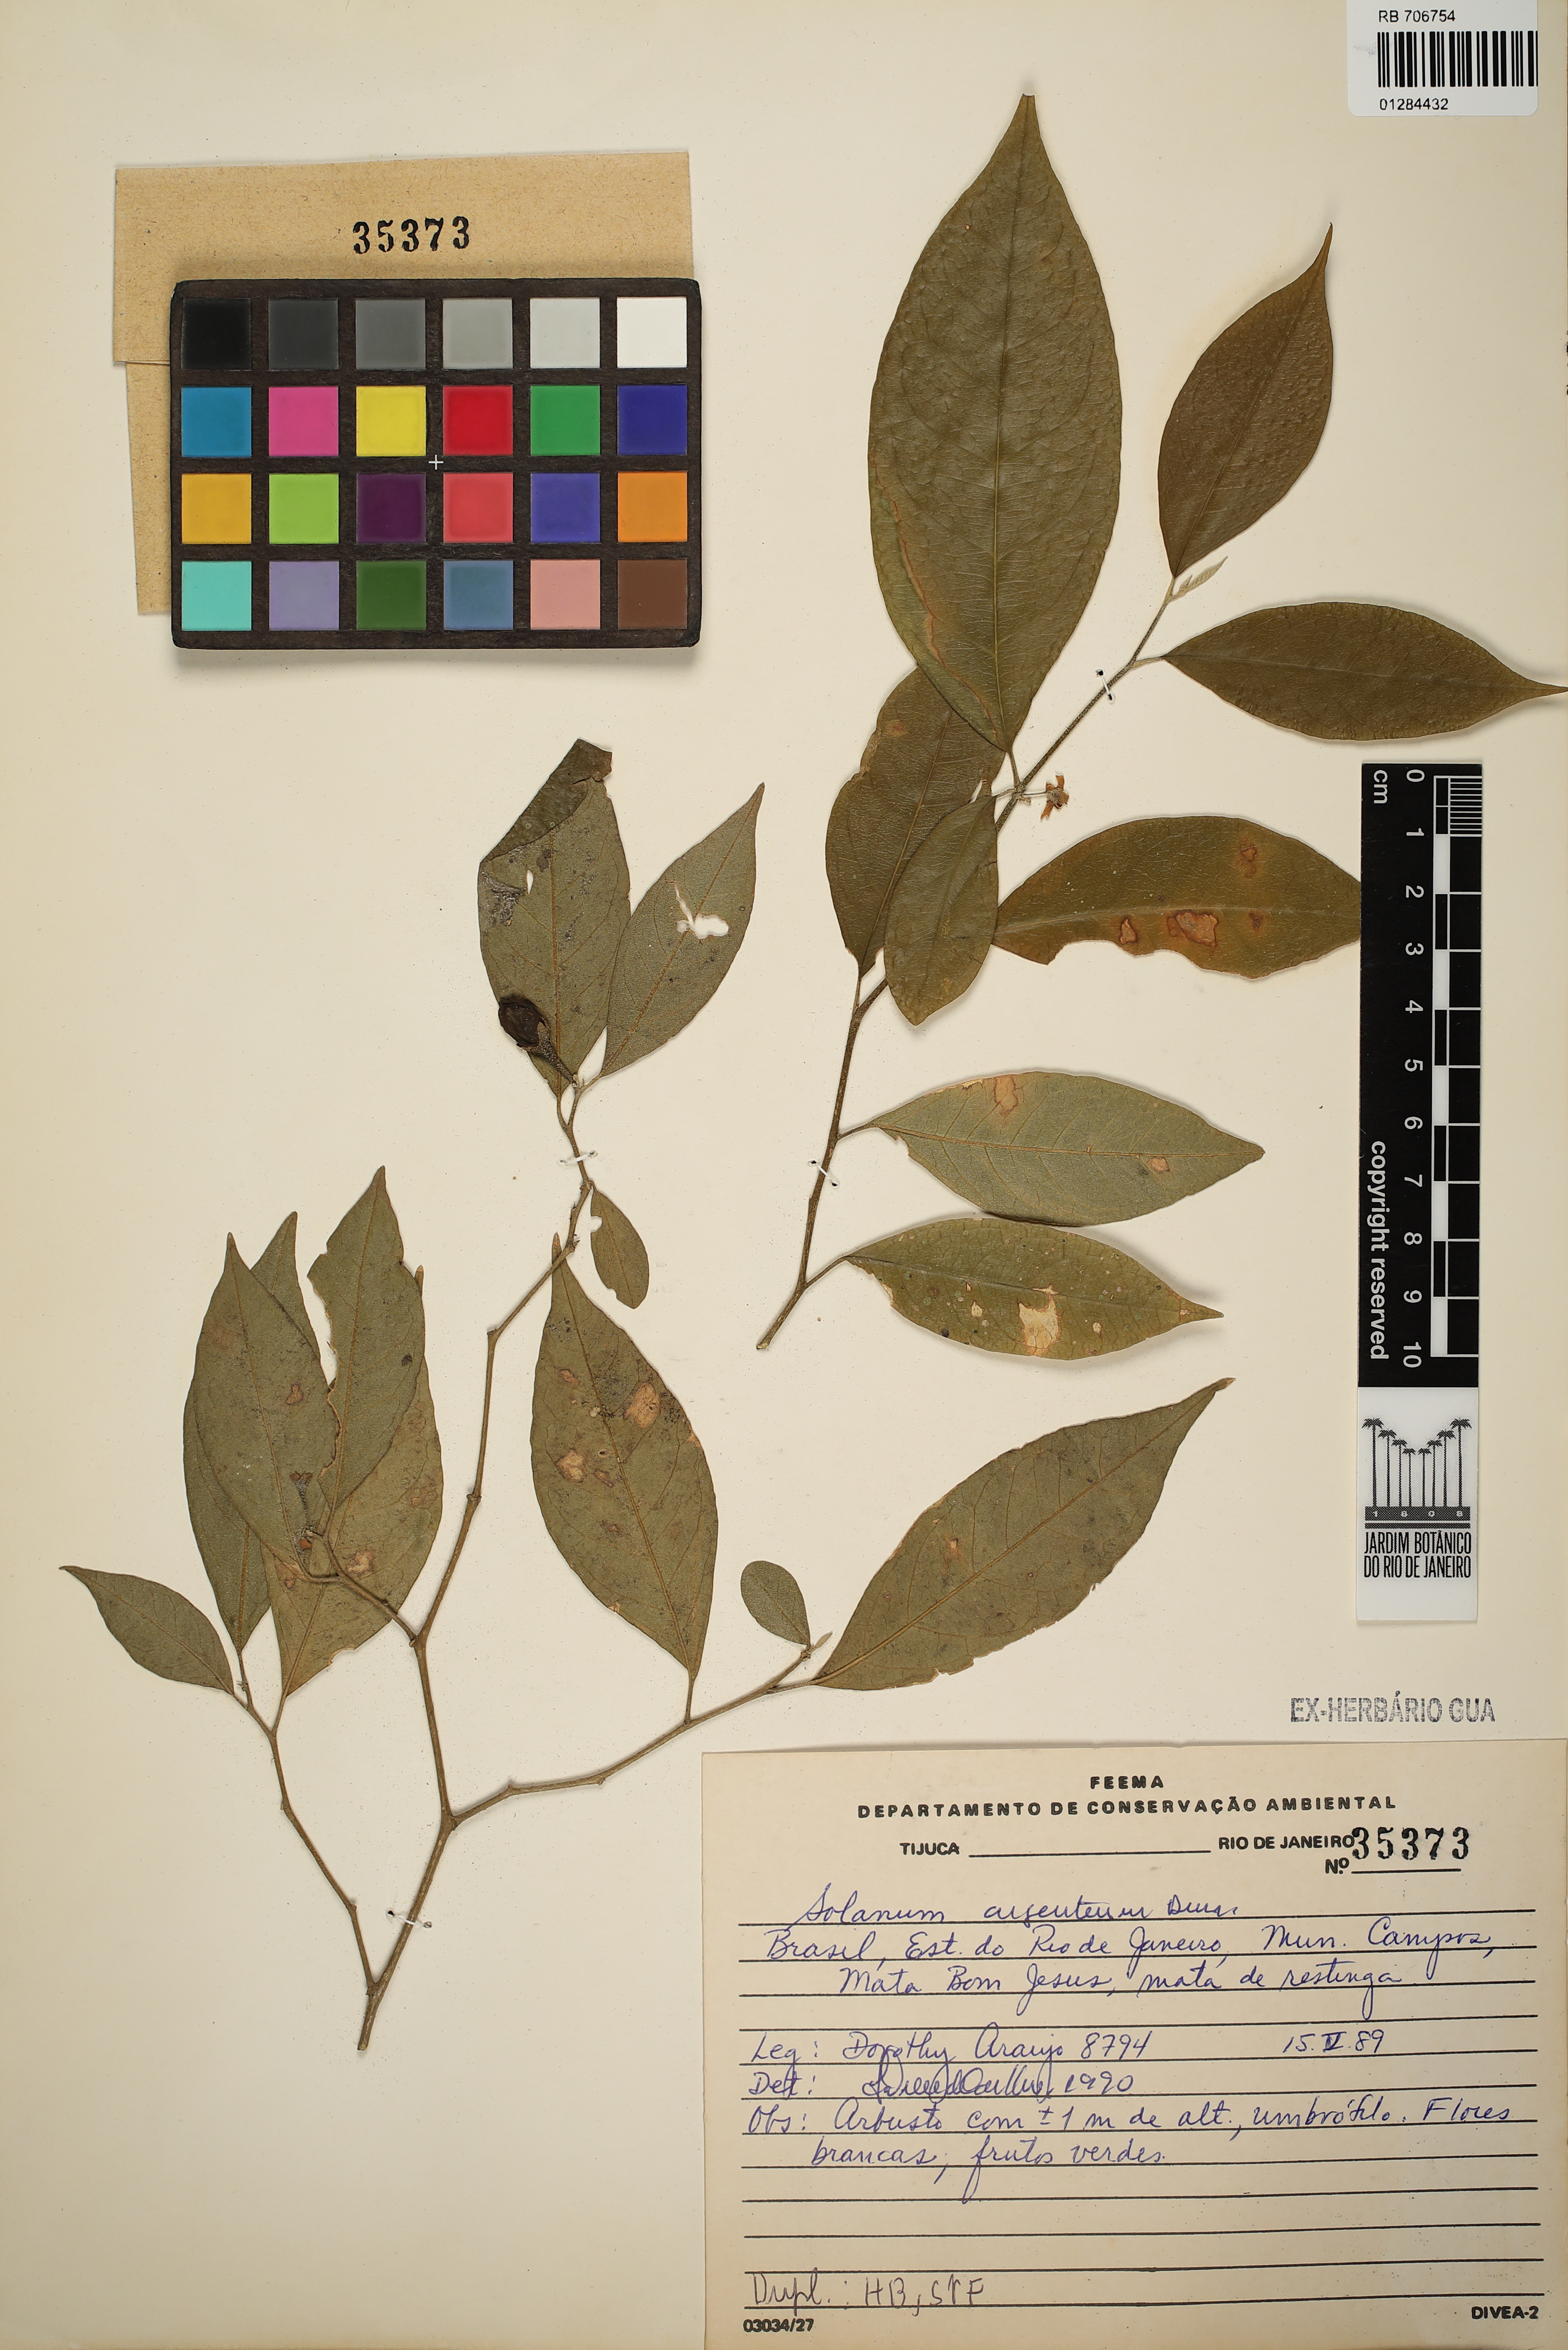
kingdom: Plantae
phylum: Tracheophyta
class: Magnoliopsida
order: Solanales
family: Solanaceae
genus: Solanum
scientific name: Solanum swartzianum
